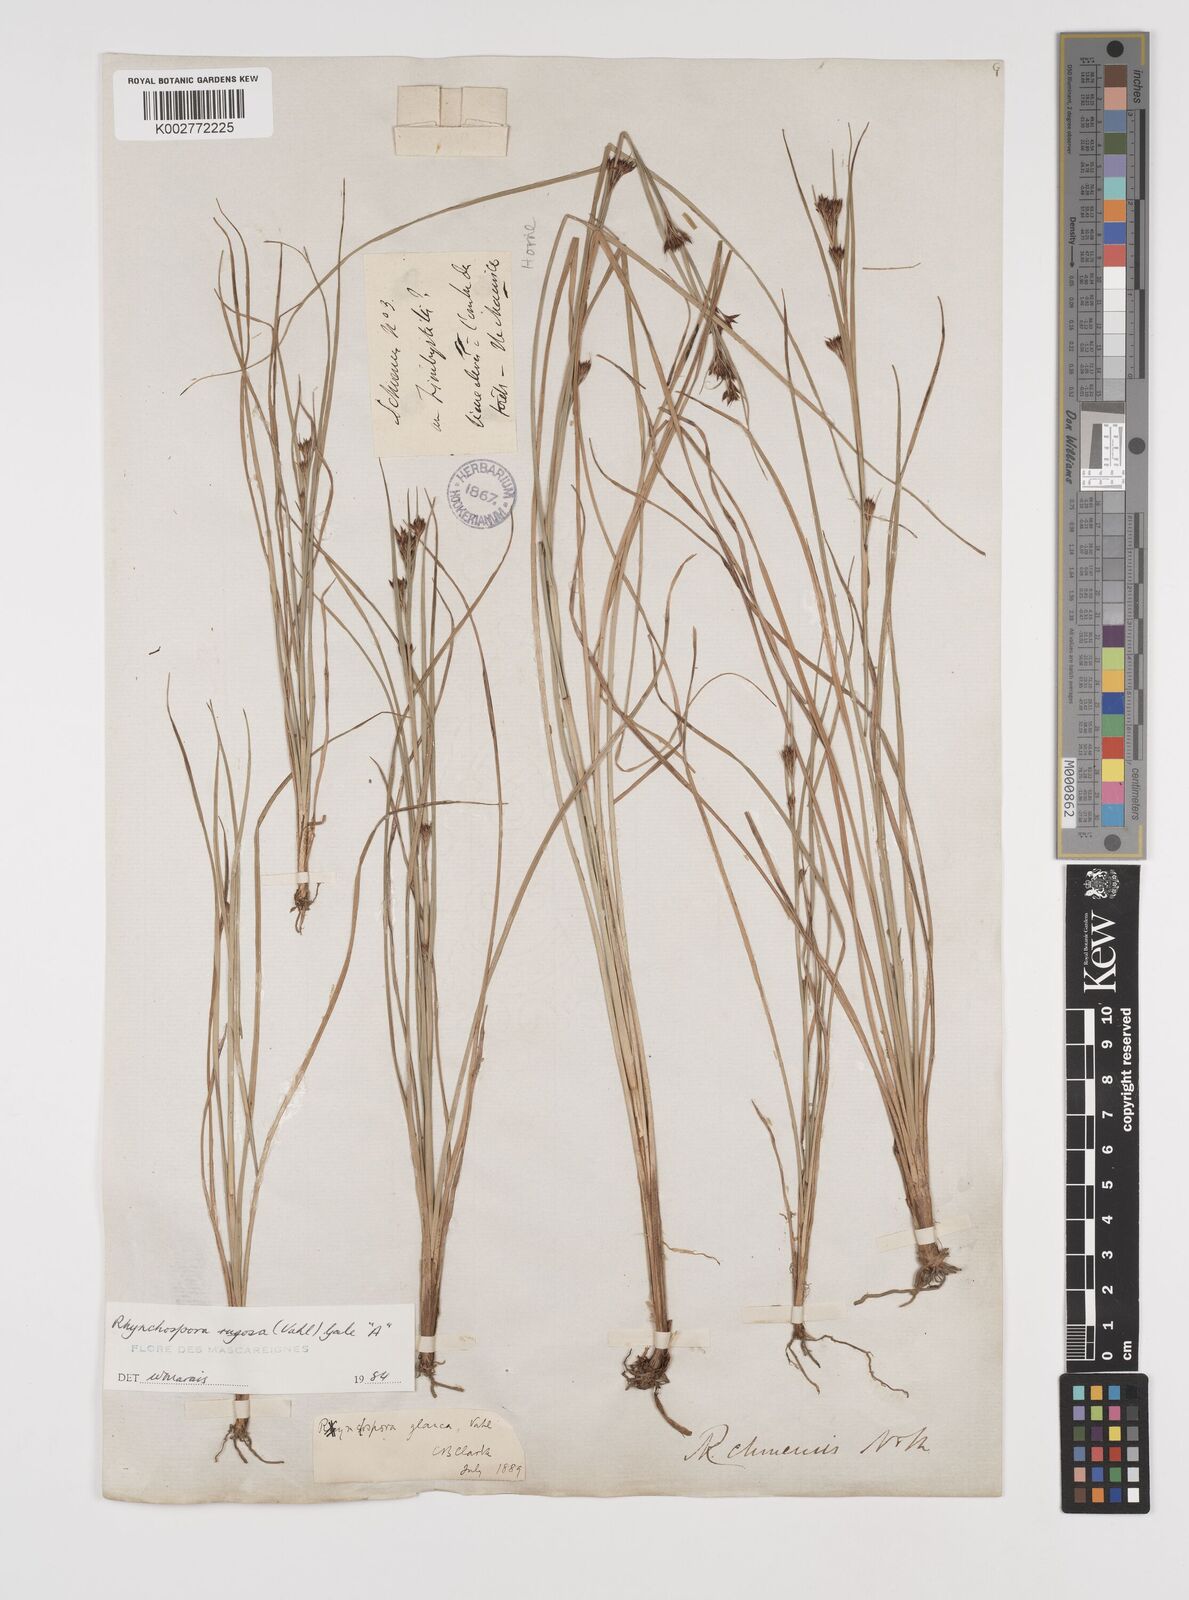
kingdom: Plantae
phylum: Tracheophyta
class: Liliopsida
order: Poales
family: Cyperaceae
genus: Rhynchospora
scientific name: Rhynchospora rugosa
